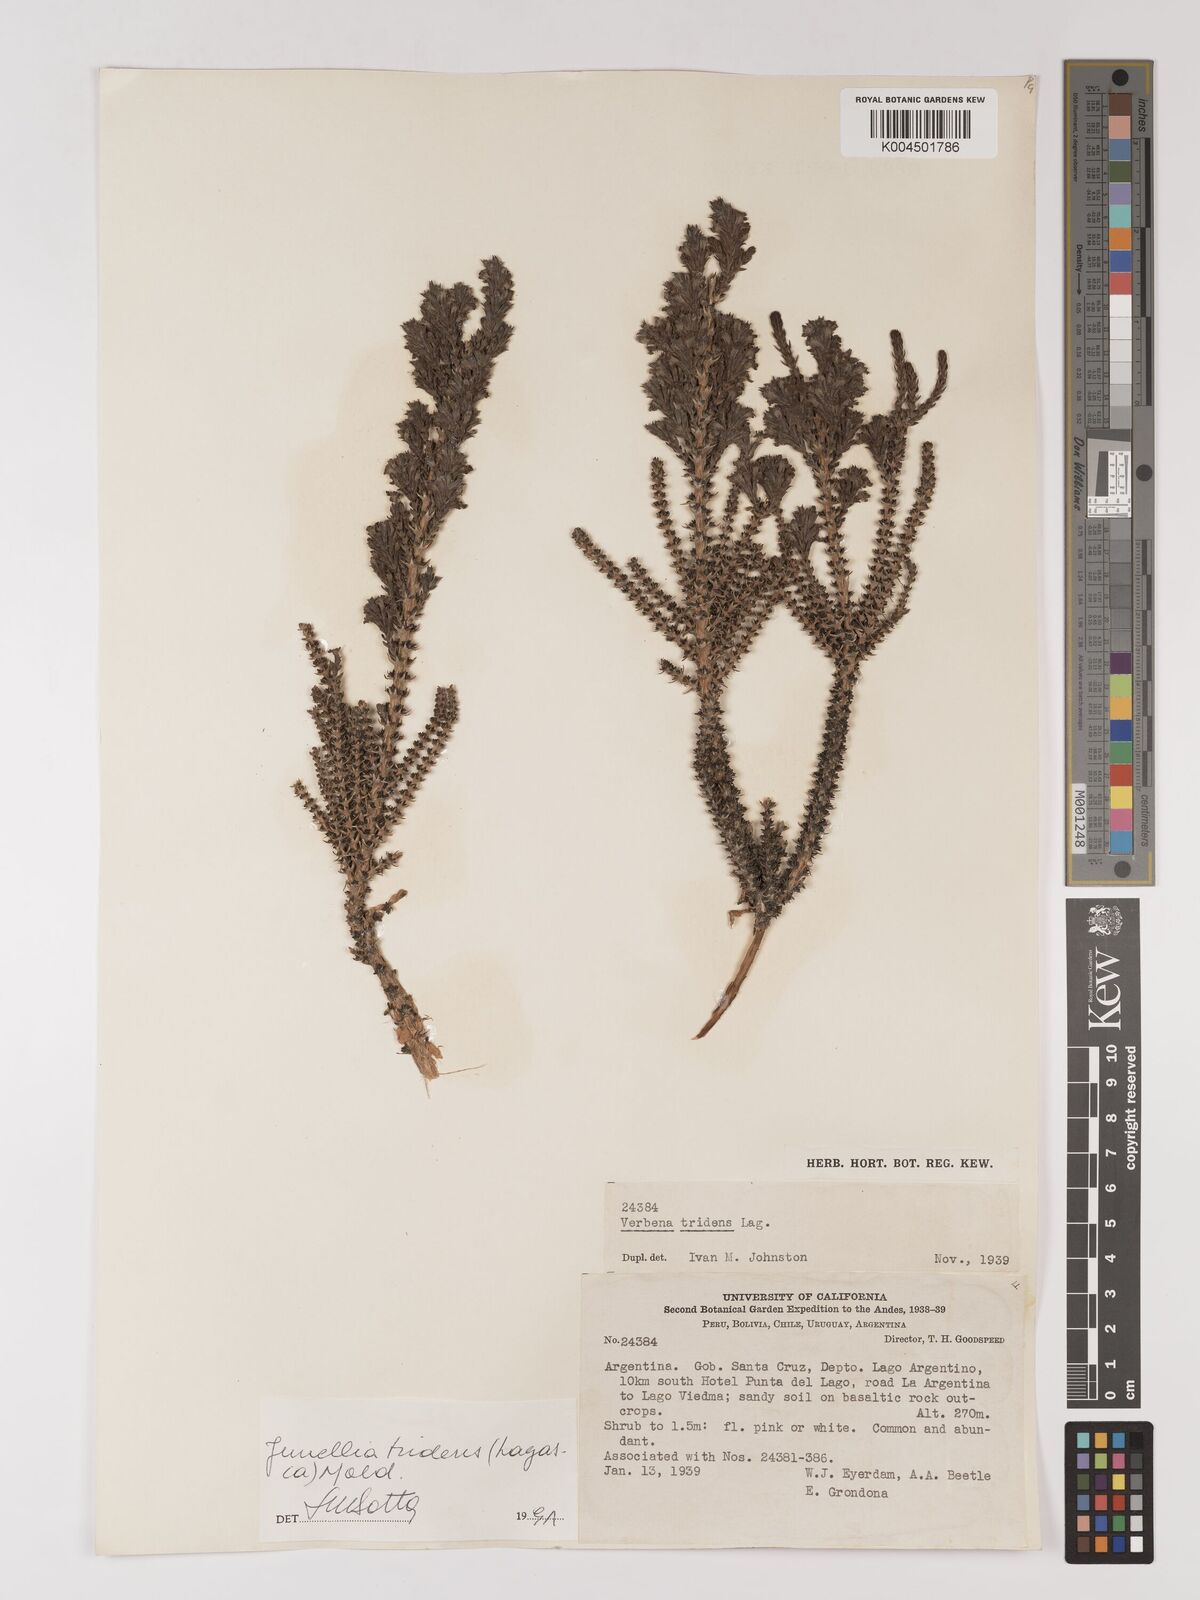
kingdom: Plantae
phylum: Tracheophyta
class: Magnoliopsida
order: Lamiales
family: Verbenaceae
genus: Mulguraea
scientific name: Mulguraea tridens
